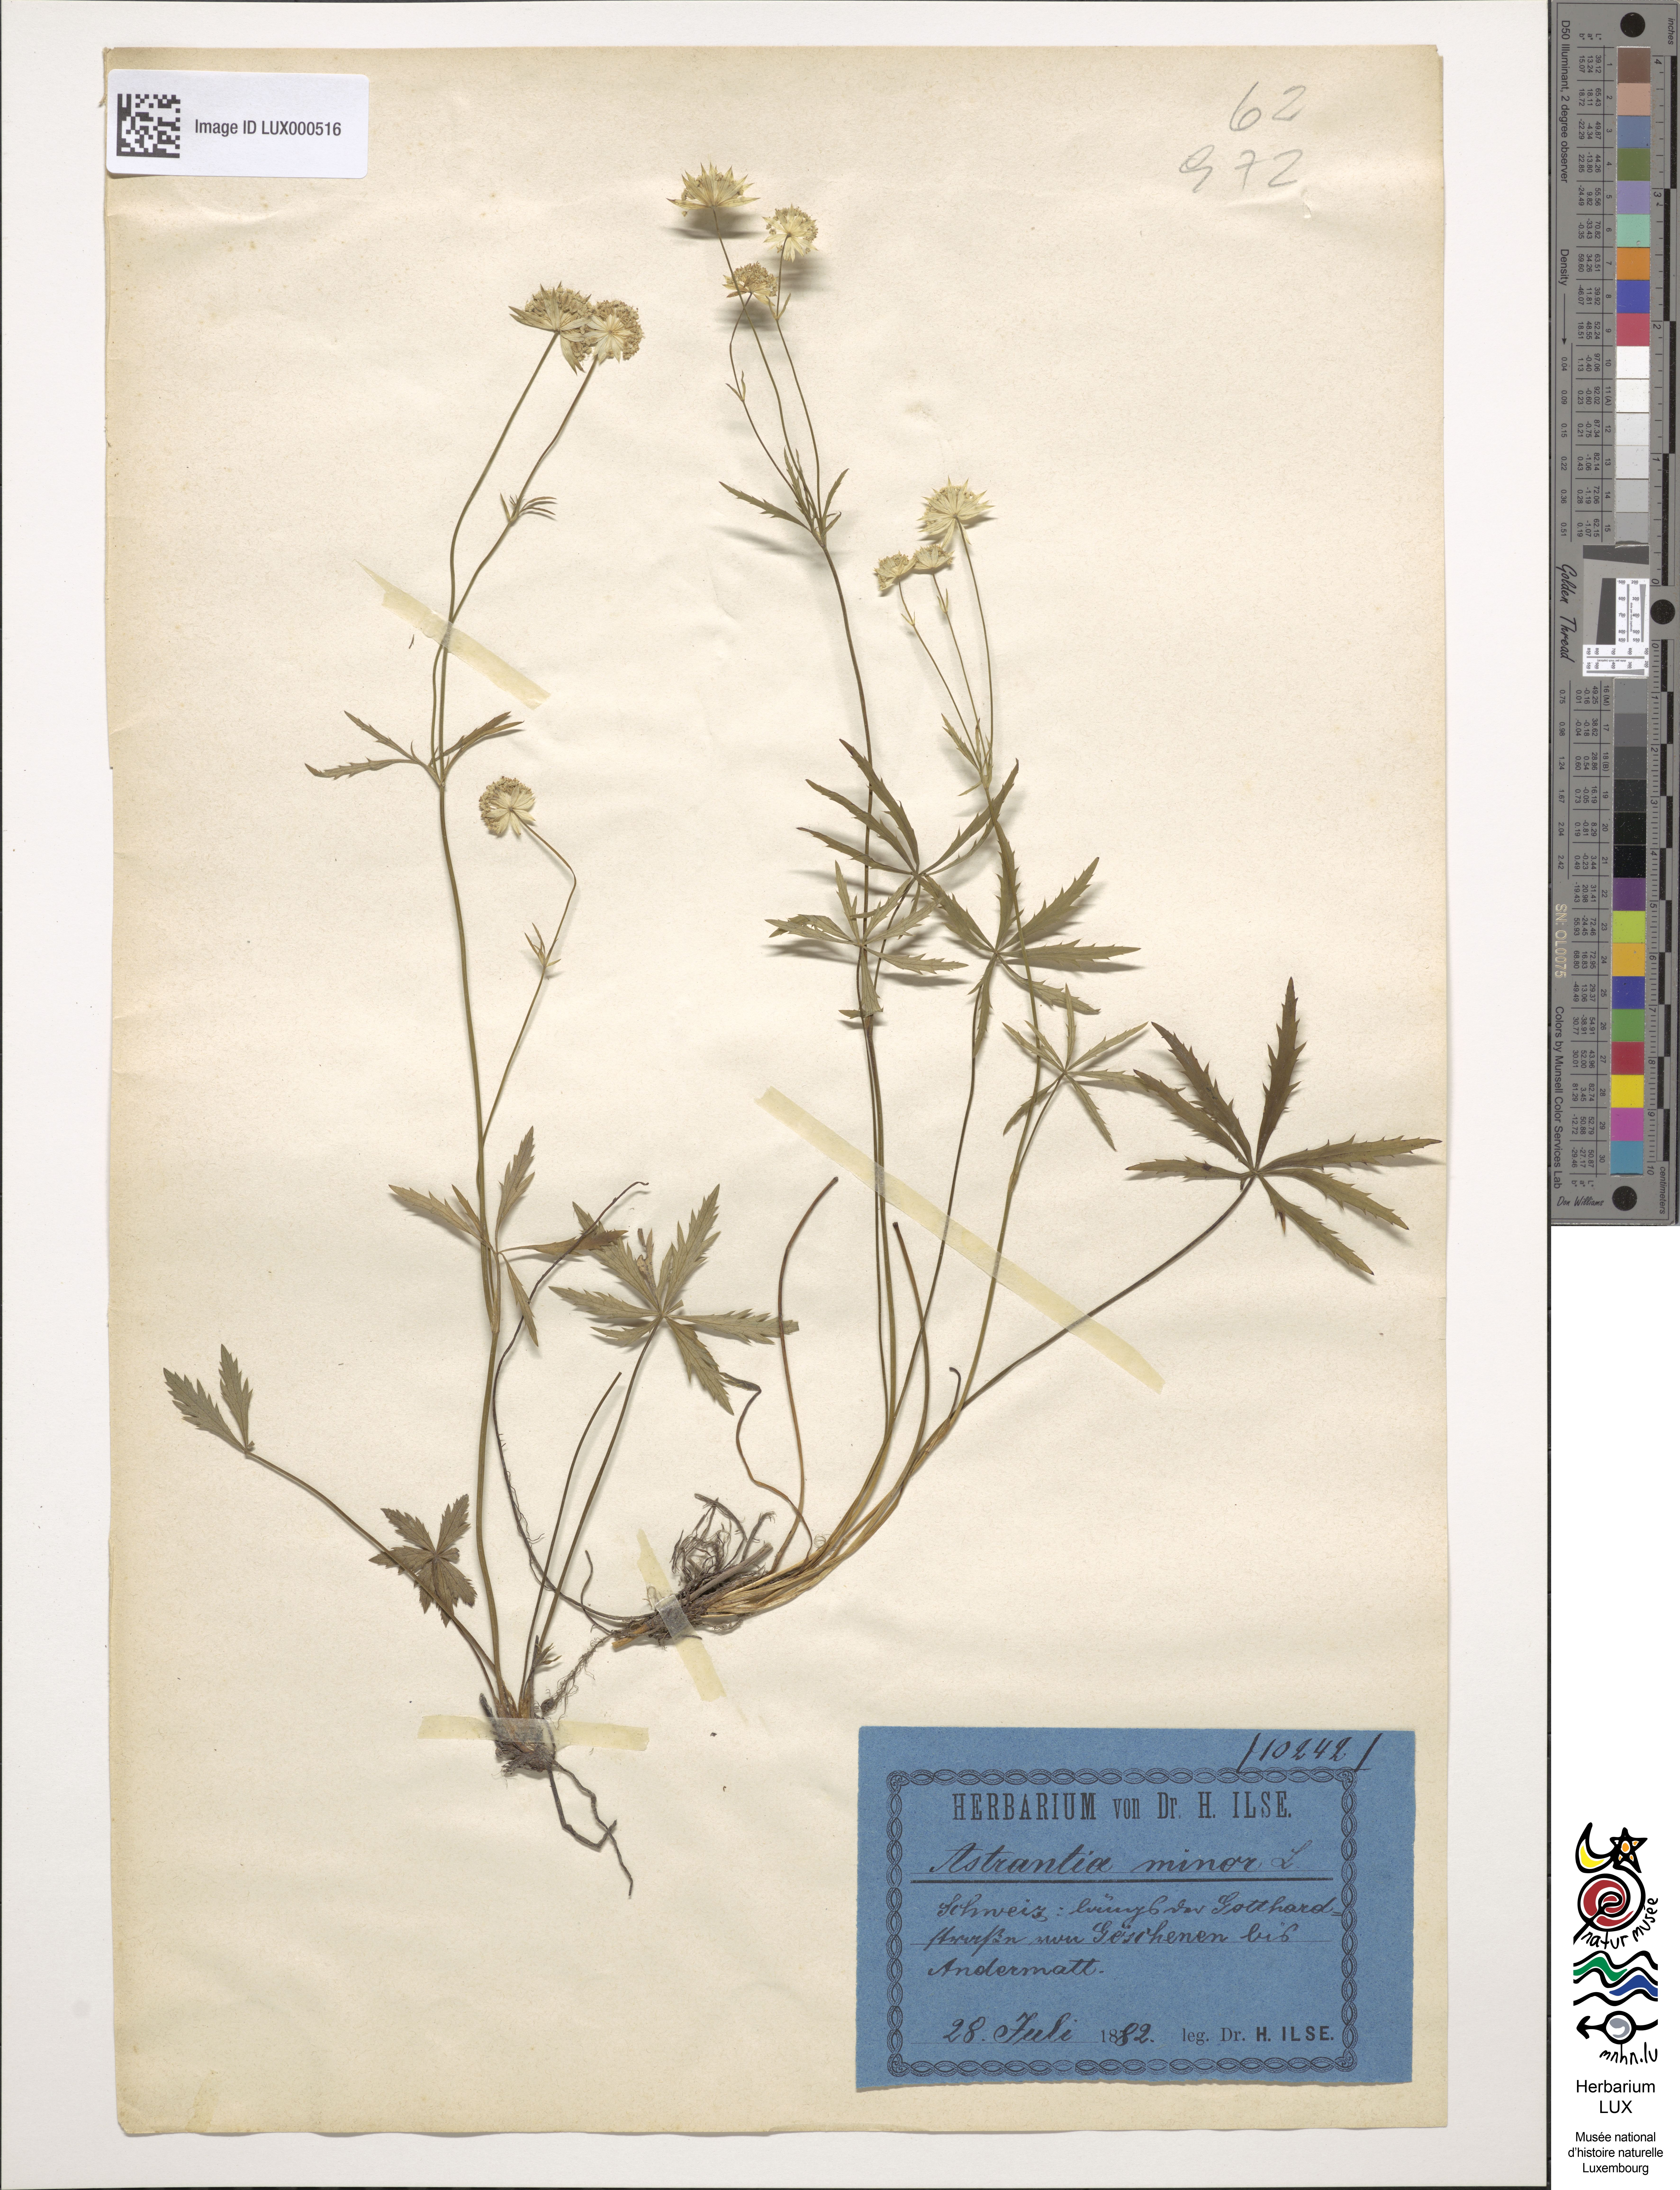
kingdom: Plantae
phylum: Tracheophyta
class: Magnoliopsida
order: Apiales
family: Apiaceae
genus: Astrantia
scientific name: Astrantia minor
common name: Lesser masterwort
